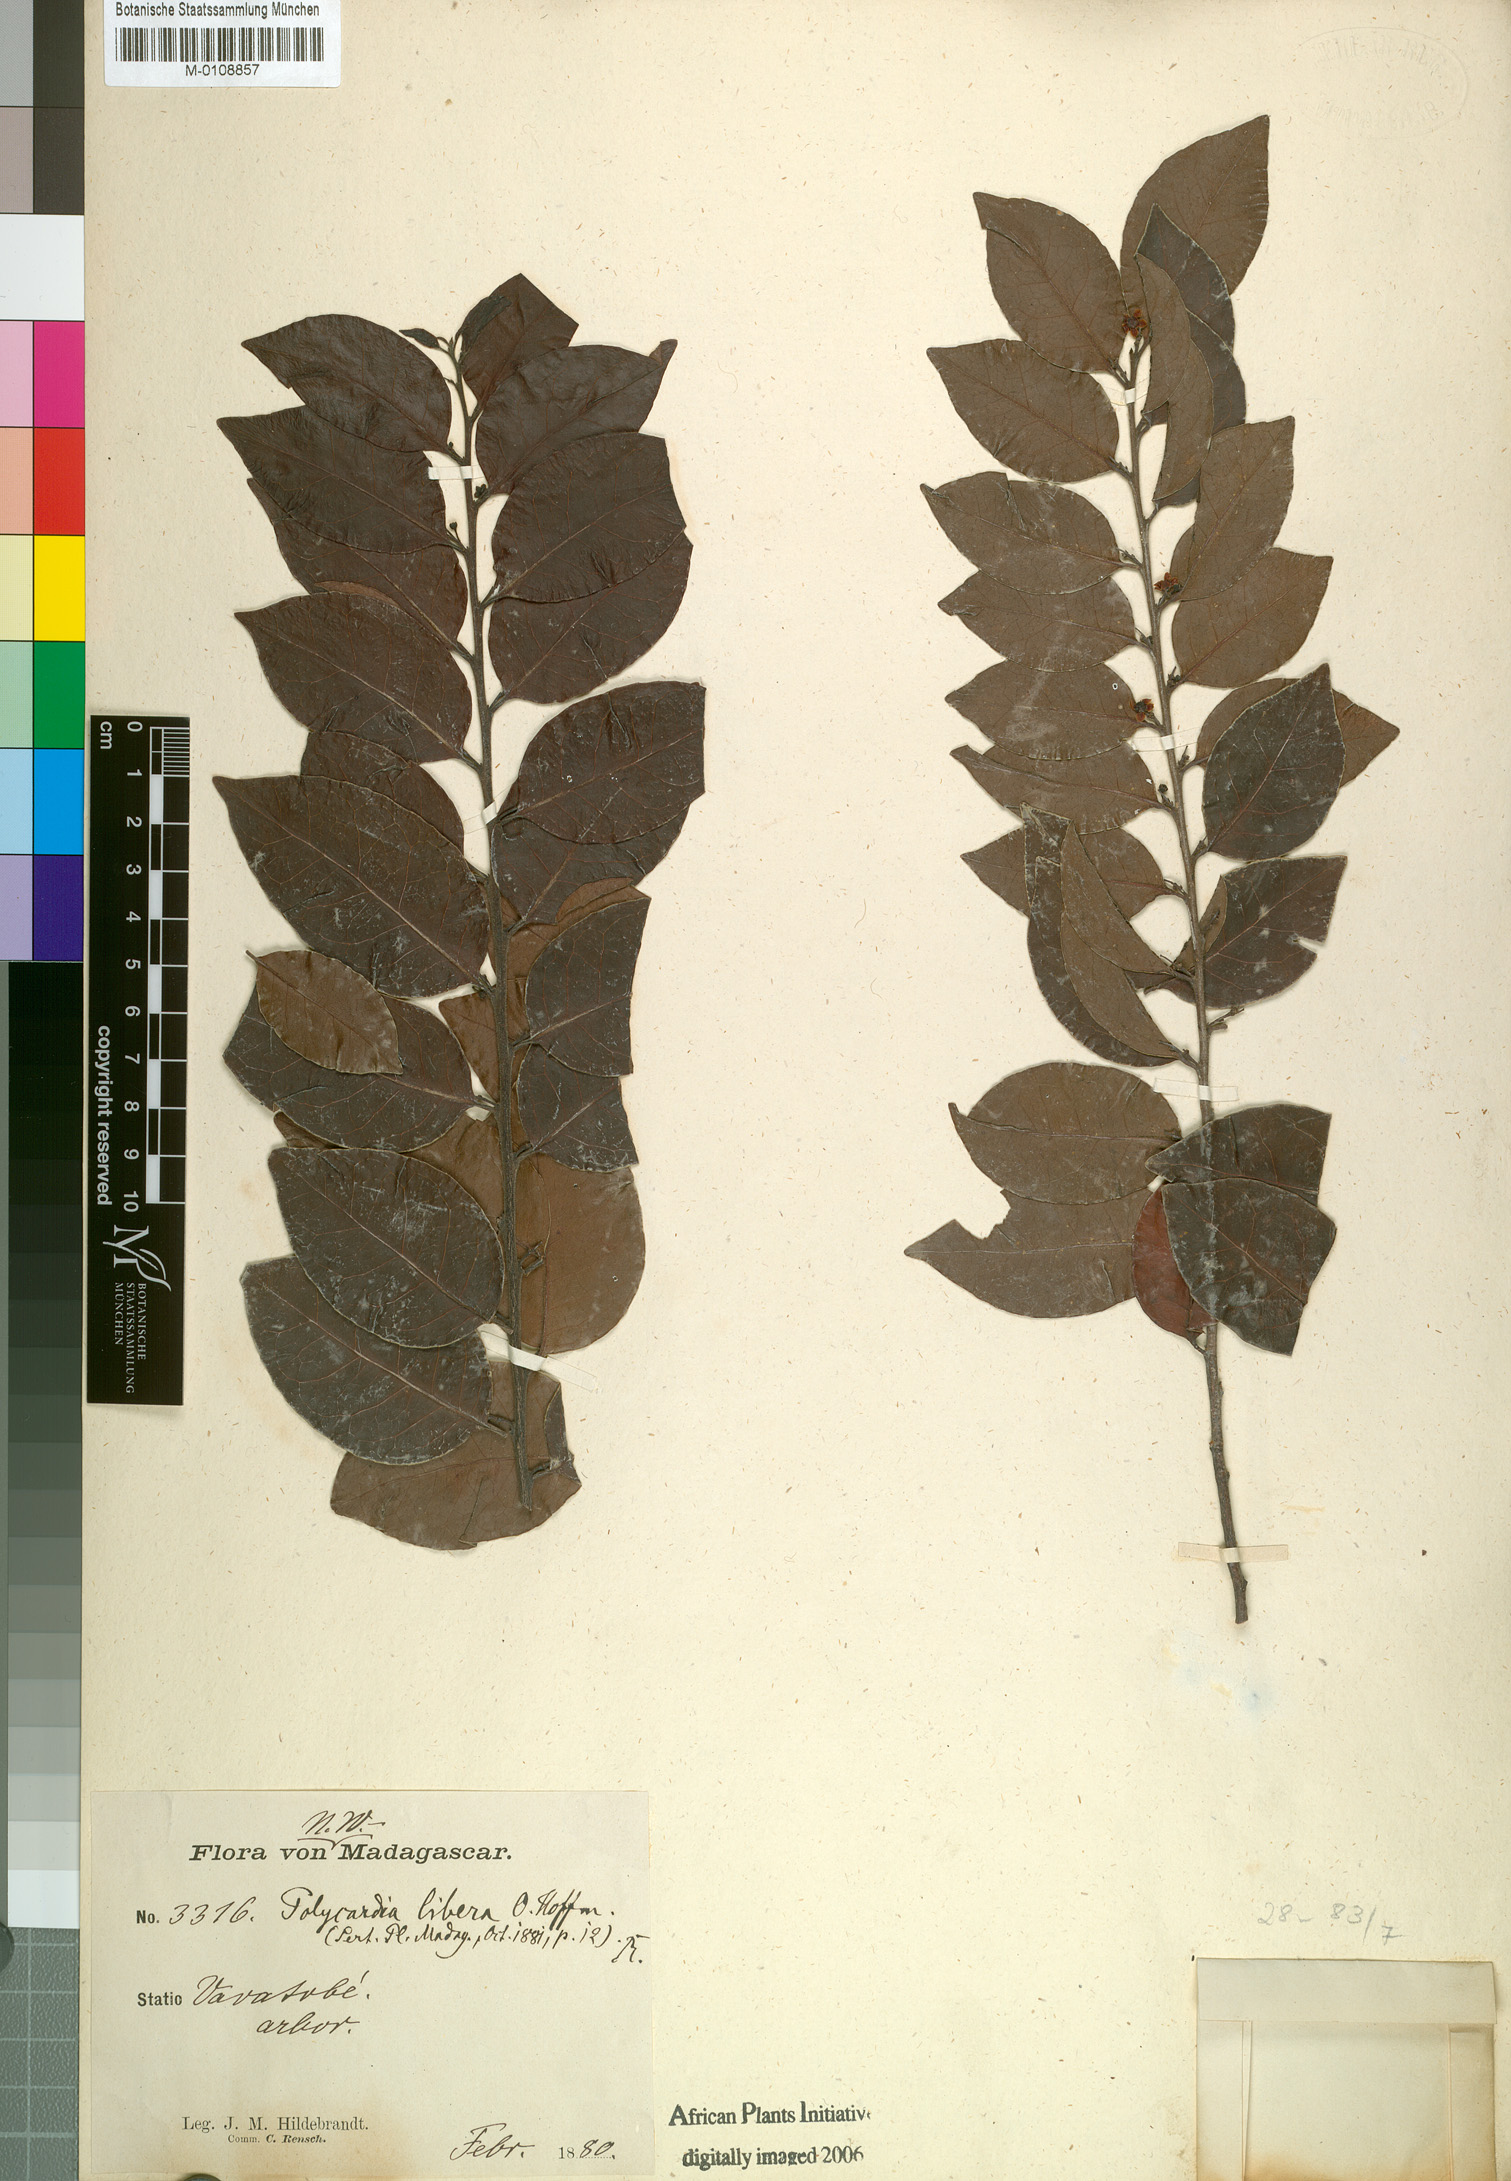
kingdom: Plantae
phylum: Tracheophyta
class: Magnoliopsida
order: Celastrales
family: Celastraceae
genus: Polycardia
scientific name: Polycardia libera
